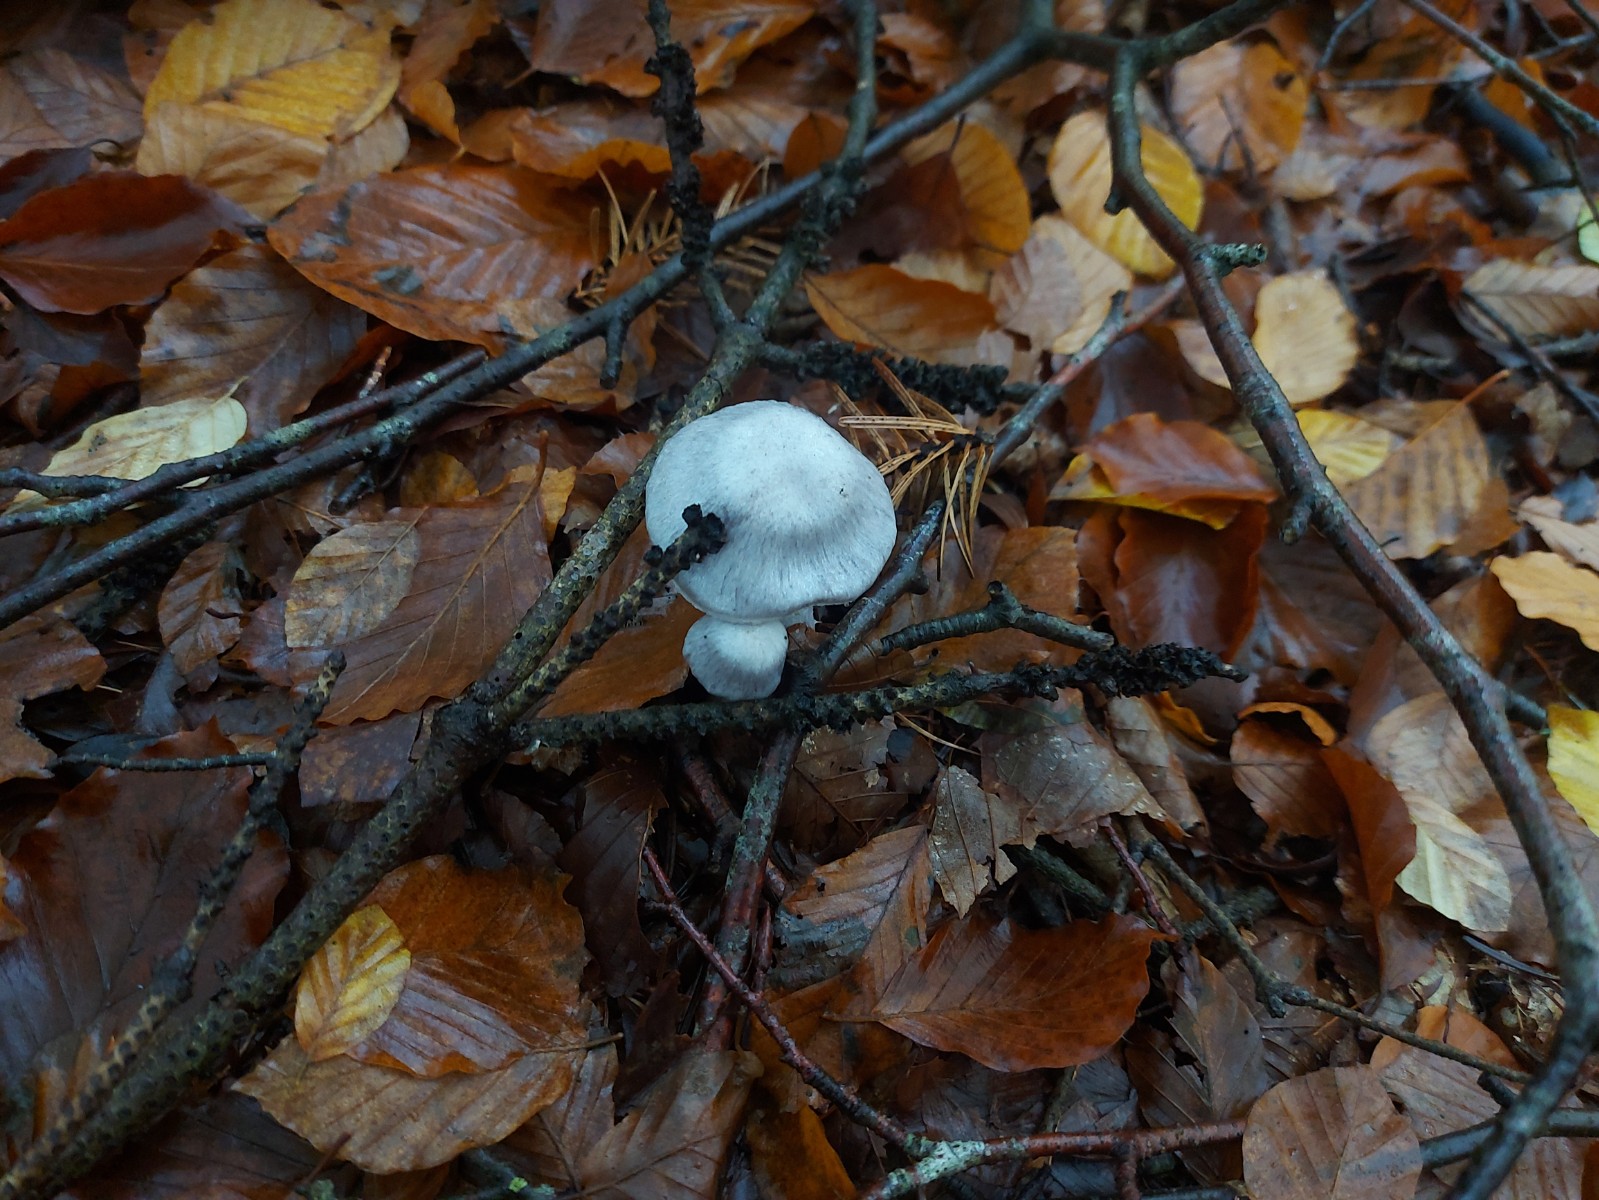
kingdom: Fungi
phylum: Basidiomycota
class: Agaricomycetes
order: Agaricales
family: Cortinariaceae
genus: Cortinarius
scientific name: Cortinarius alboviolaceus
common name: lysviolet slørhat
